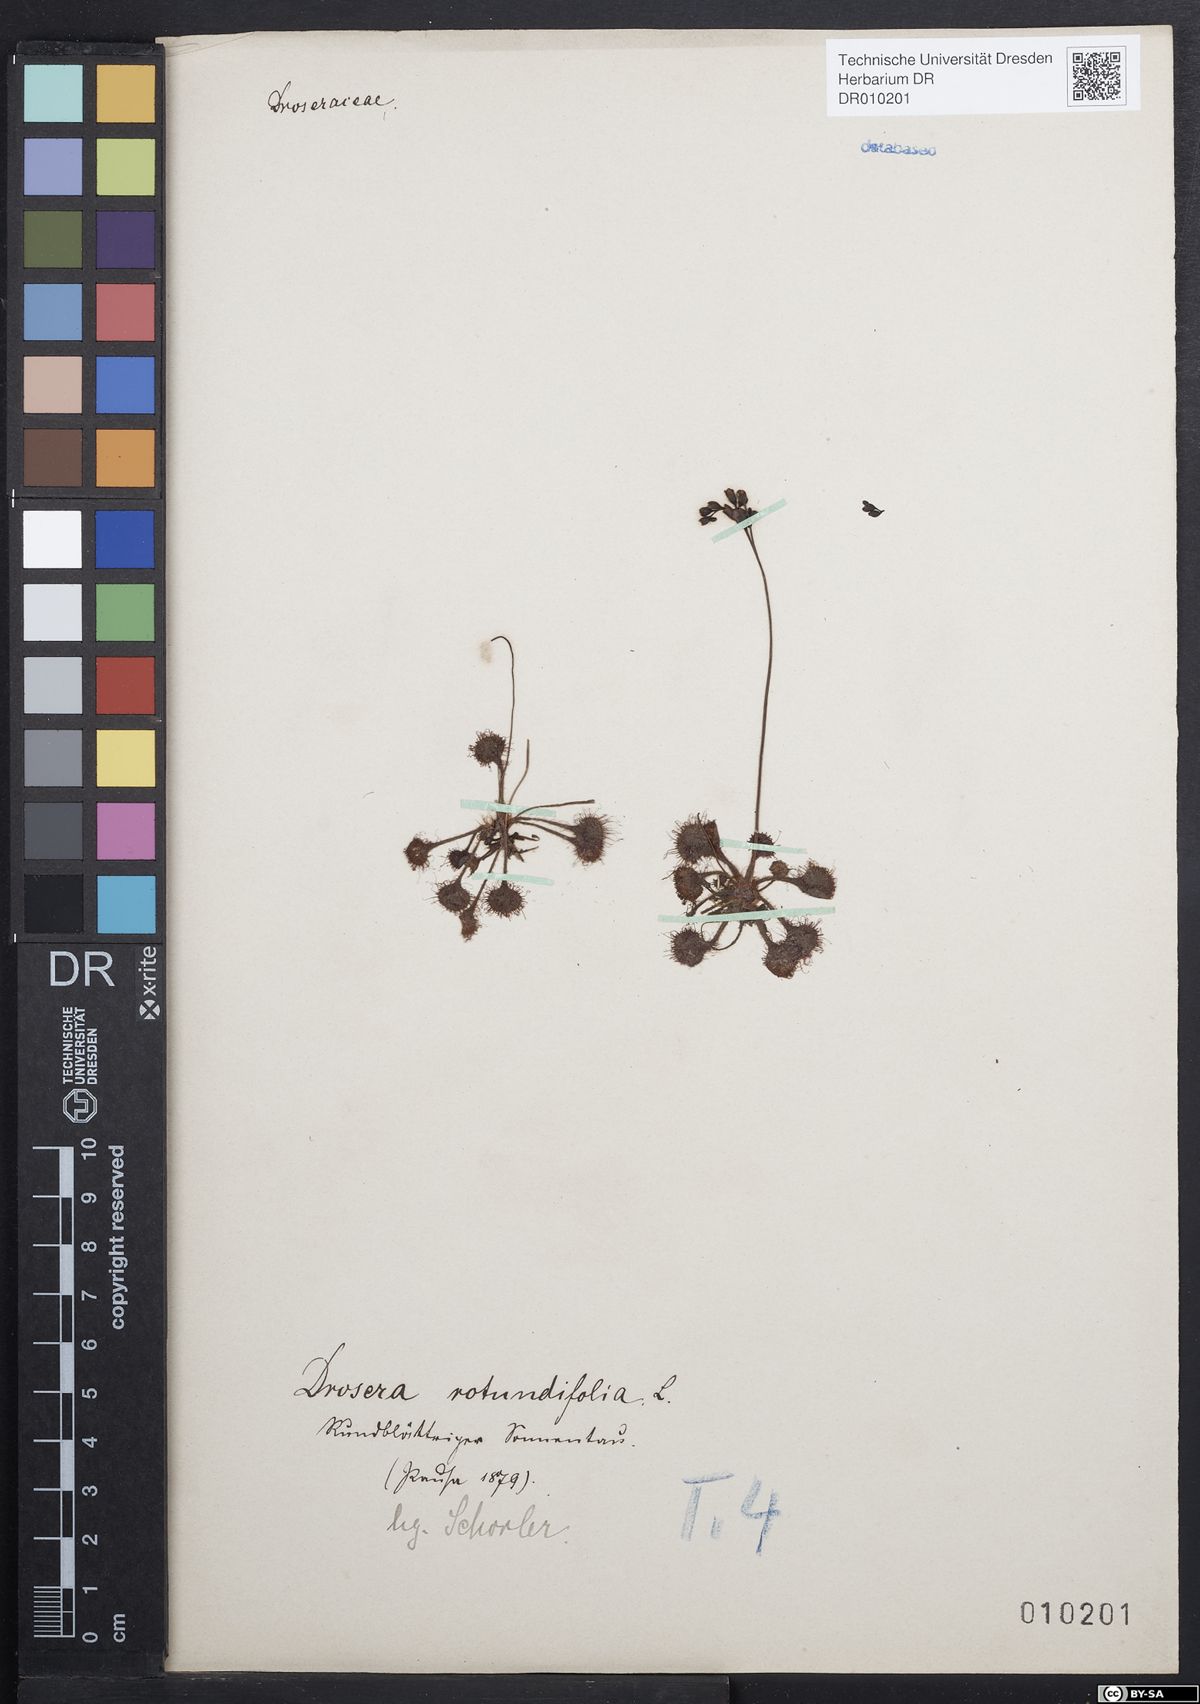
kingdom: Plantae
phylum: Tracheophyta
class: Magnoliopsida
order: Caryophyllales
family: Droseraceae
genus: Drosera
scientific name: Drosera rotundifolia
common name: Round-leaved sundew
